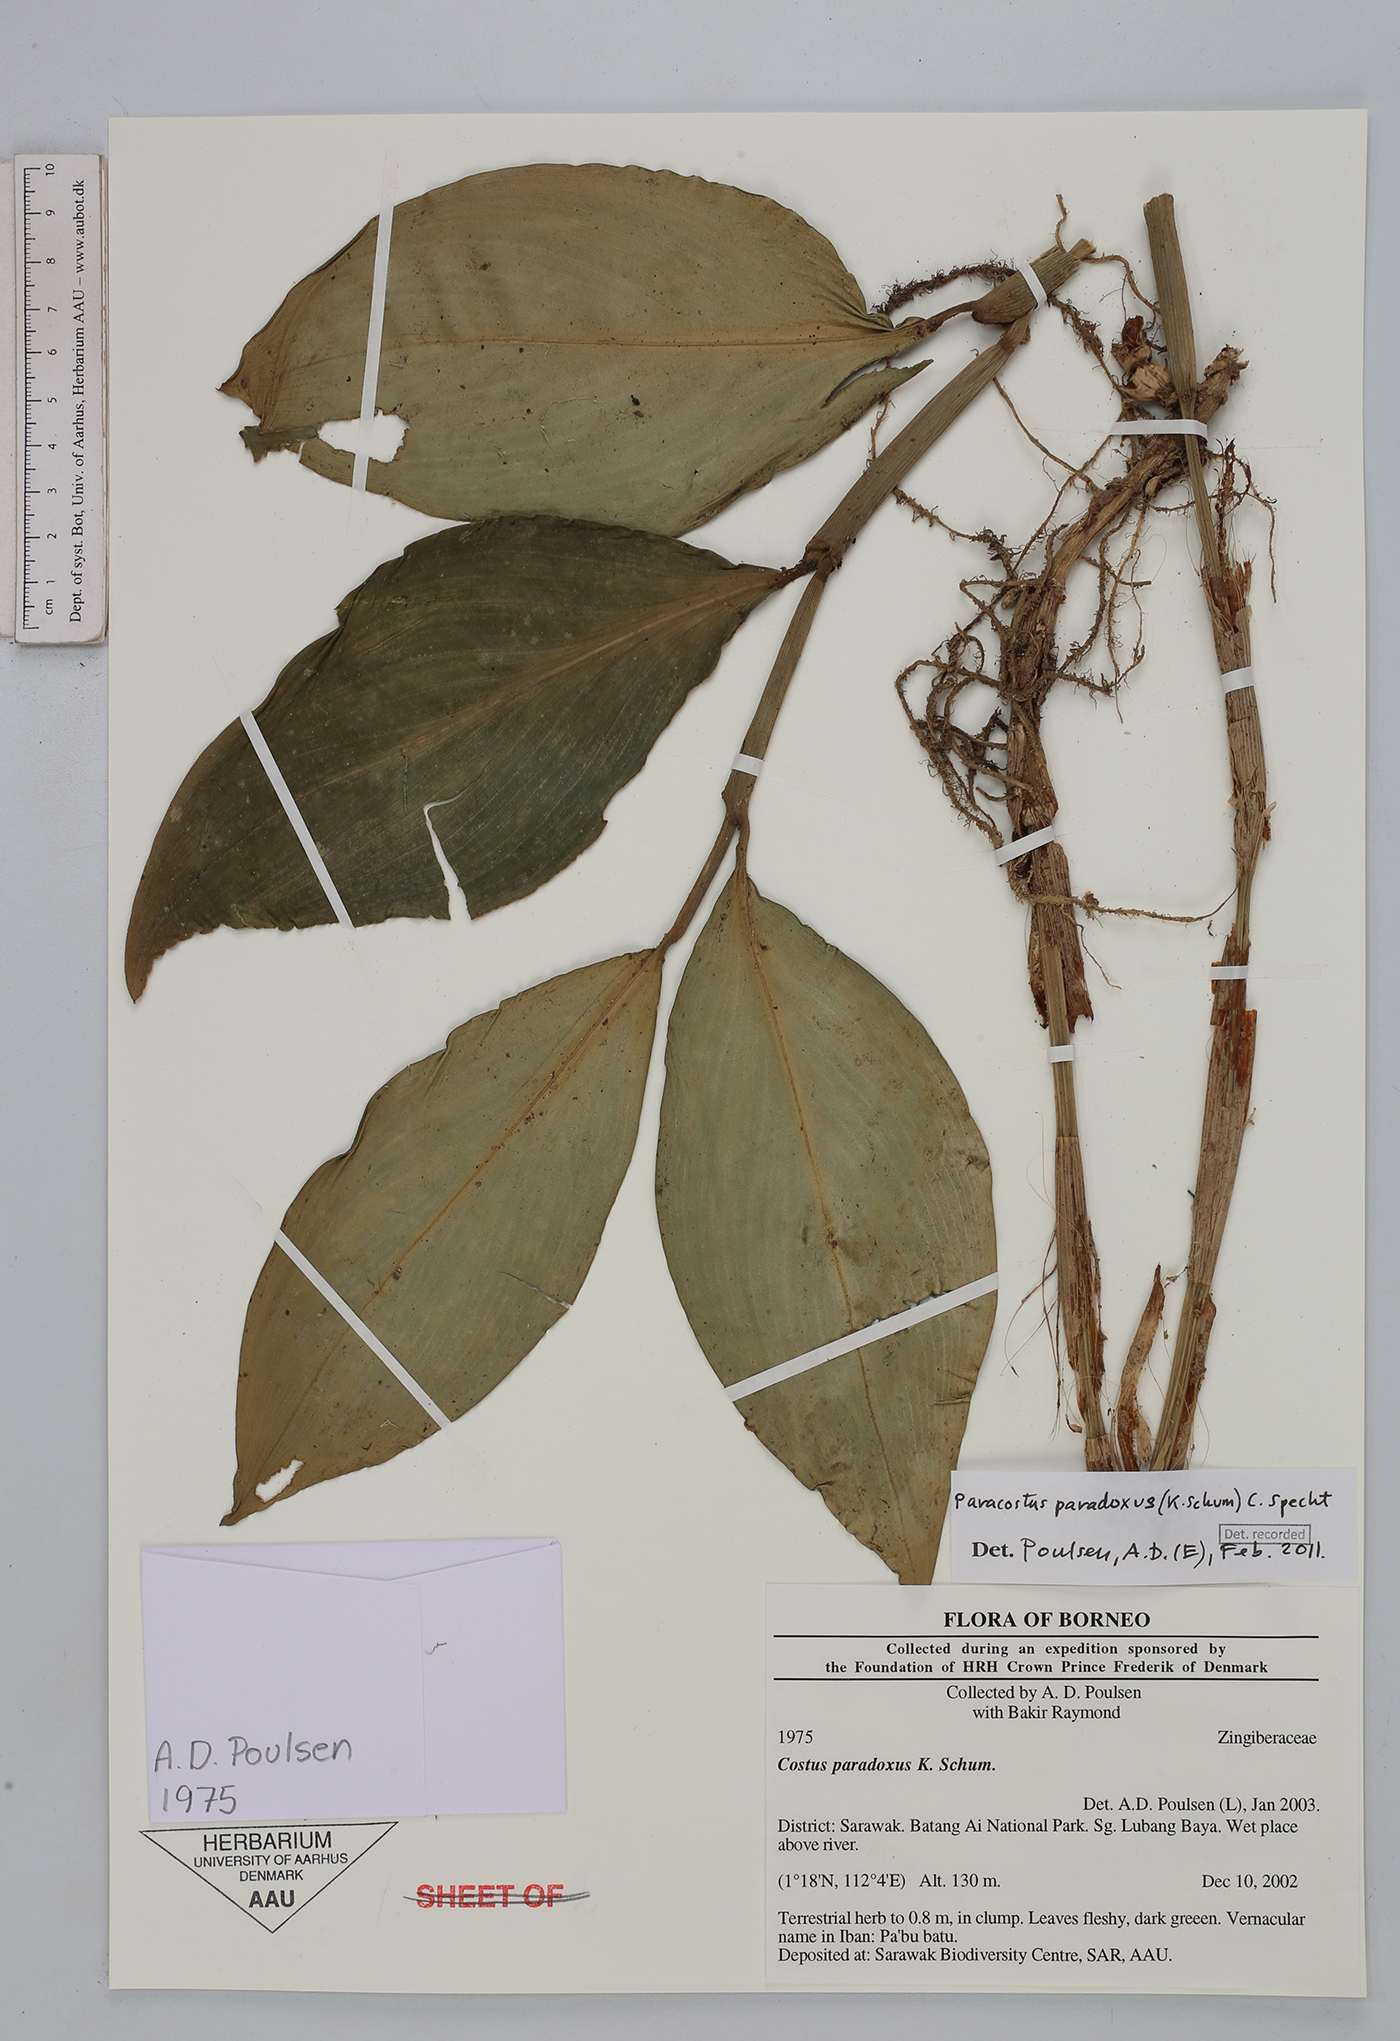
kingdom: Plantae
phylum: Tracheophyta
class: Liliopsida
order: Zingiberales
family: Costaceae
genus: Paracostus
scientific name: Paracostus paradoxus
